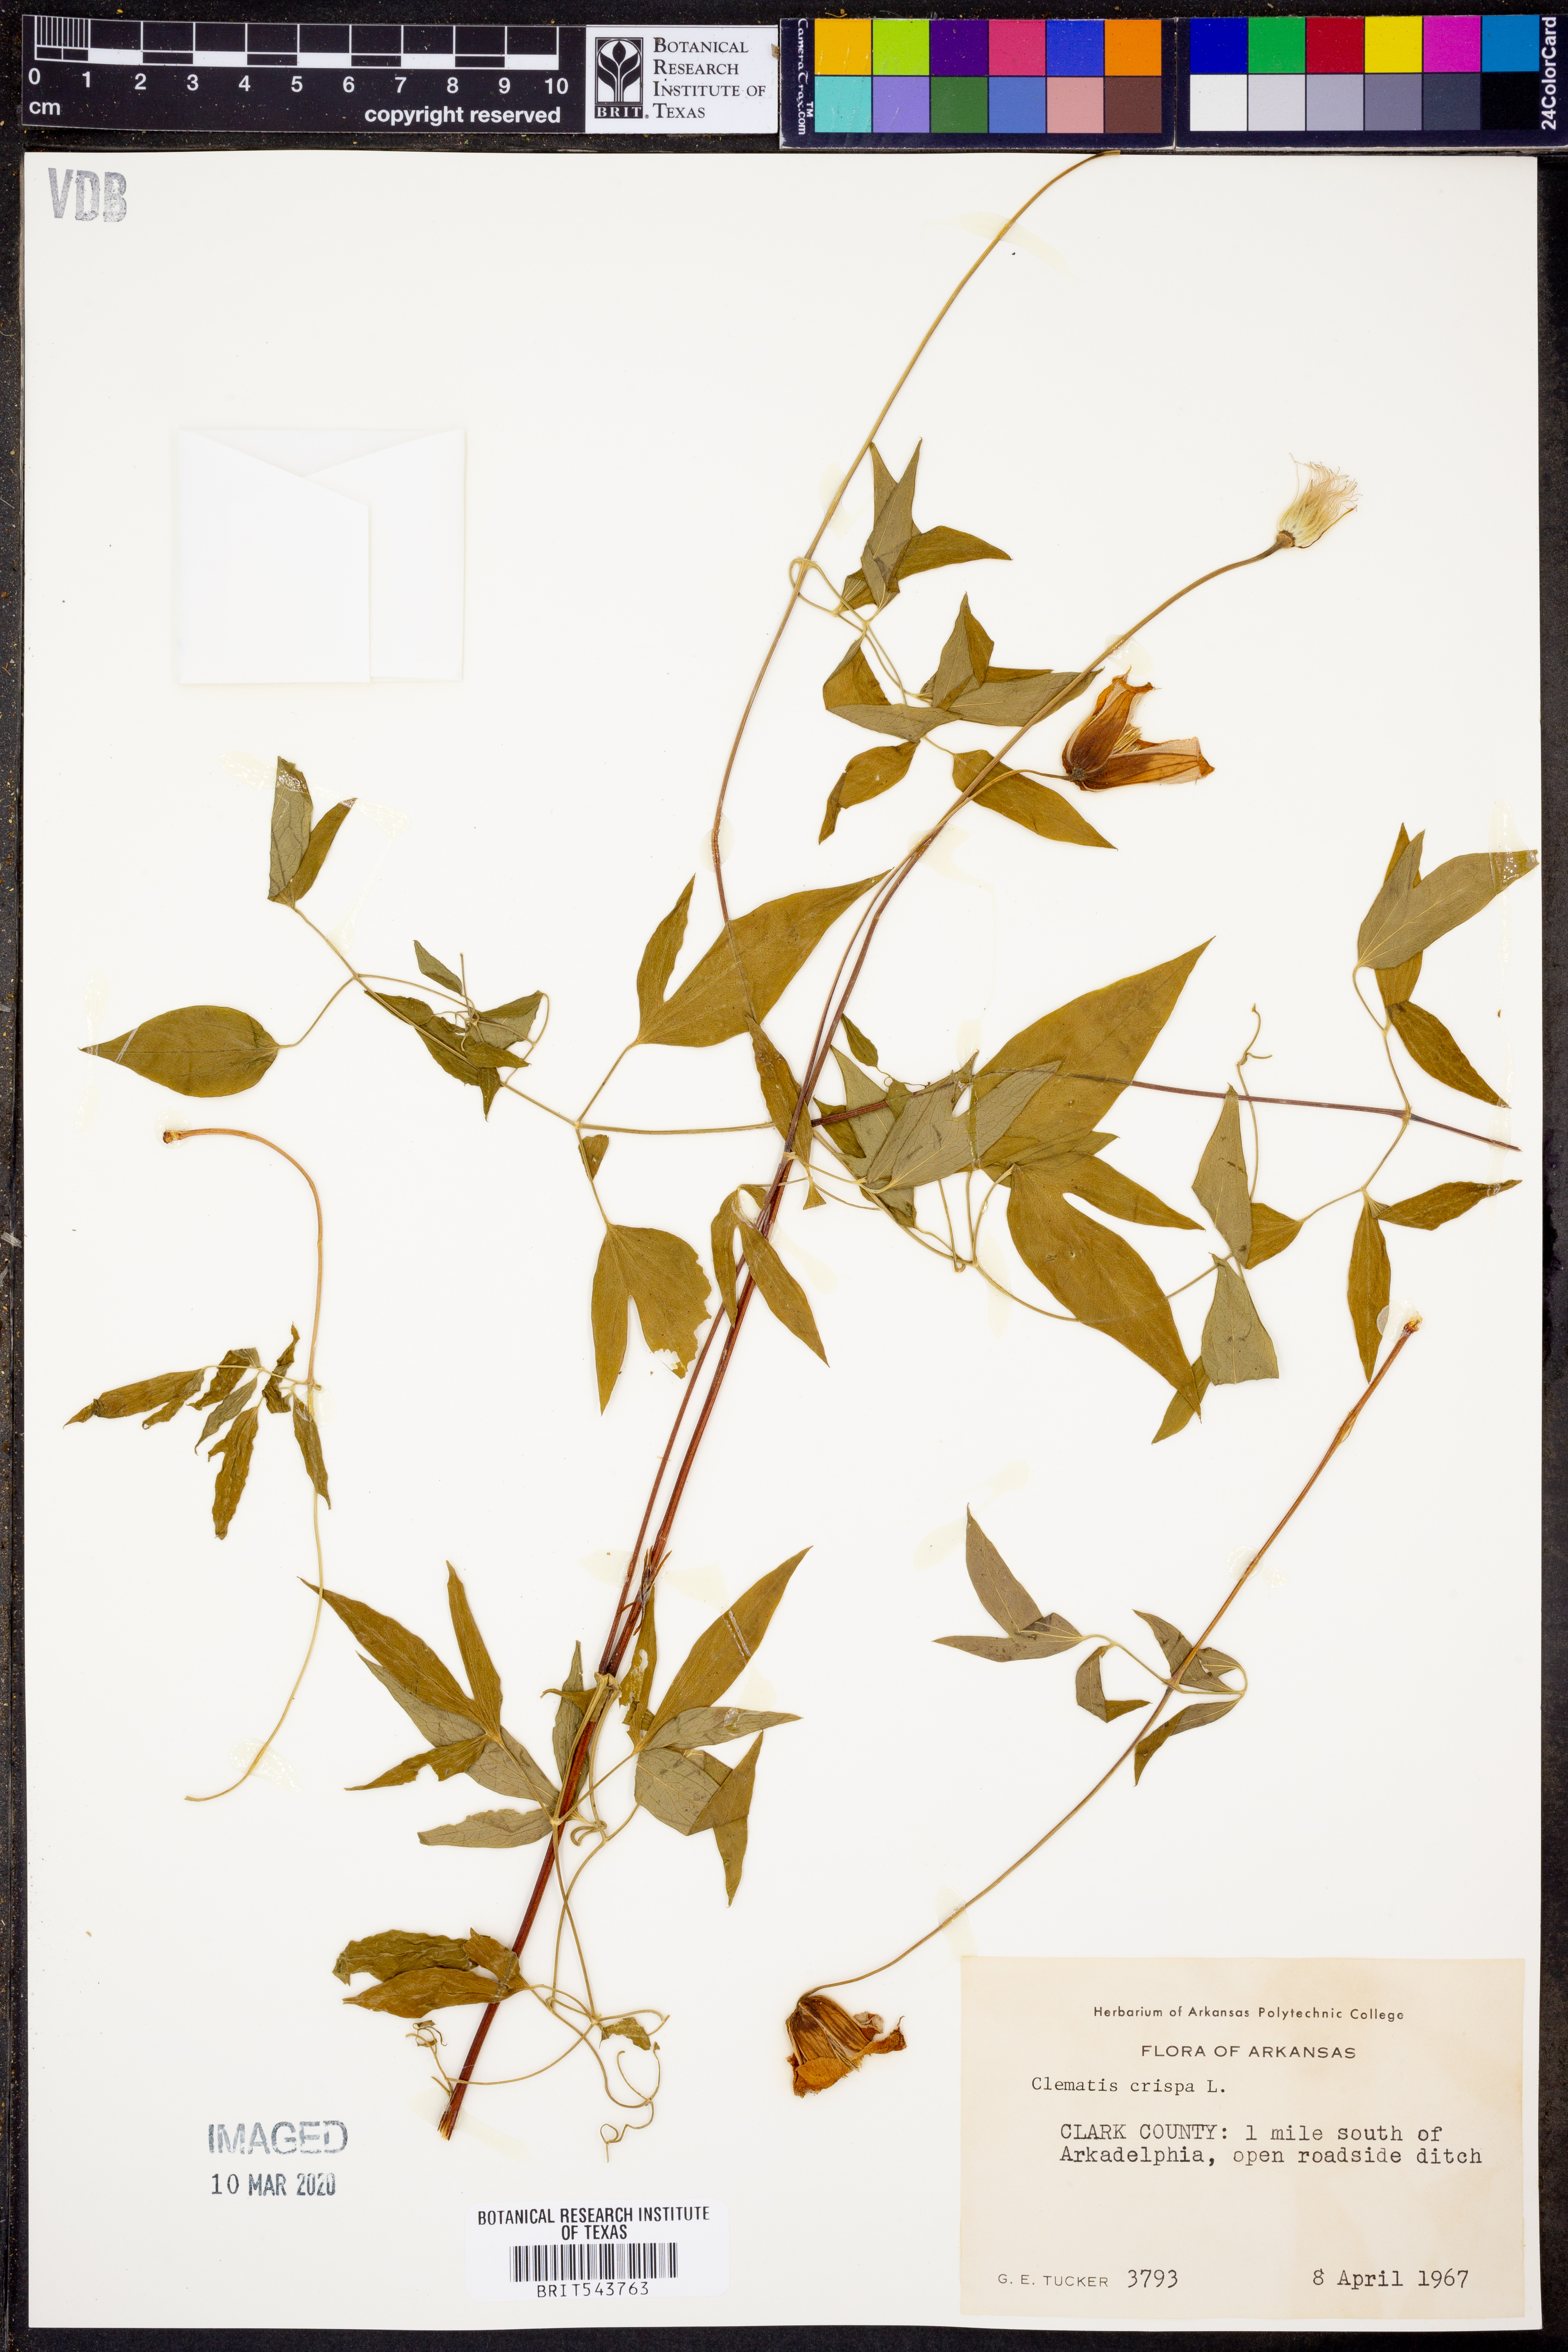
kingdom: Plantae
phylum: Tracheophyta
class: Magnoliopsida
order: Ranunculales
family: Ranunculaceae
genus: Clematis
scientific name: Clematis crispa
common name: Curly clematis
